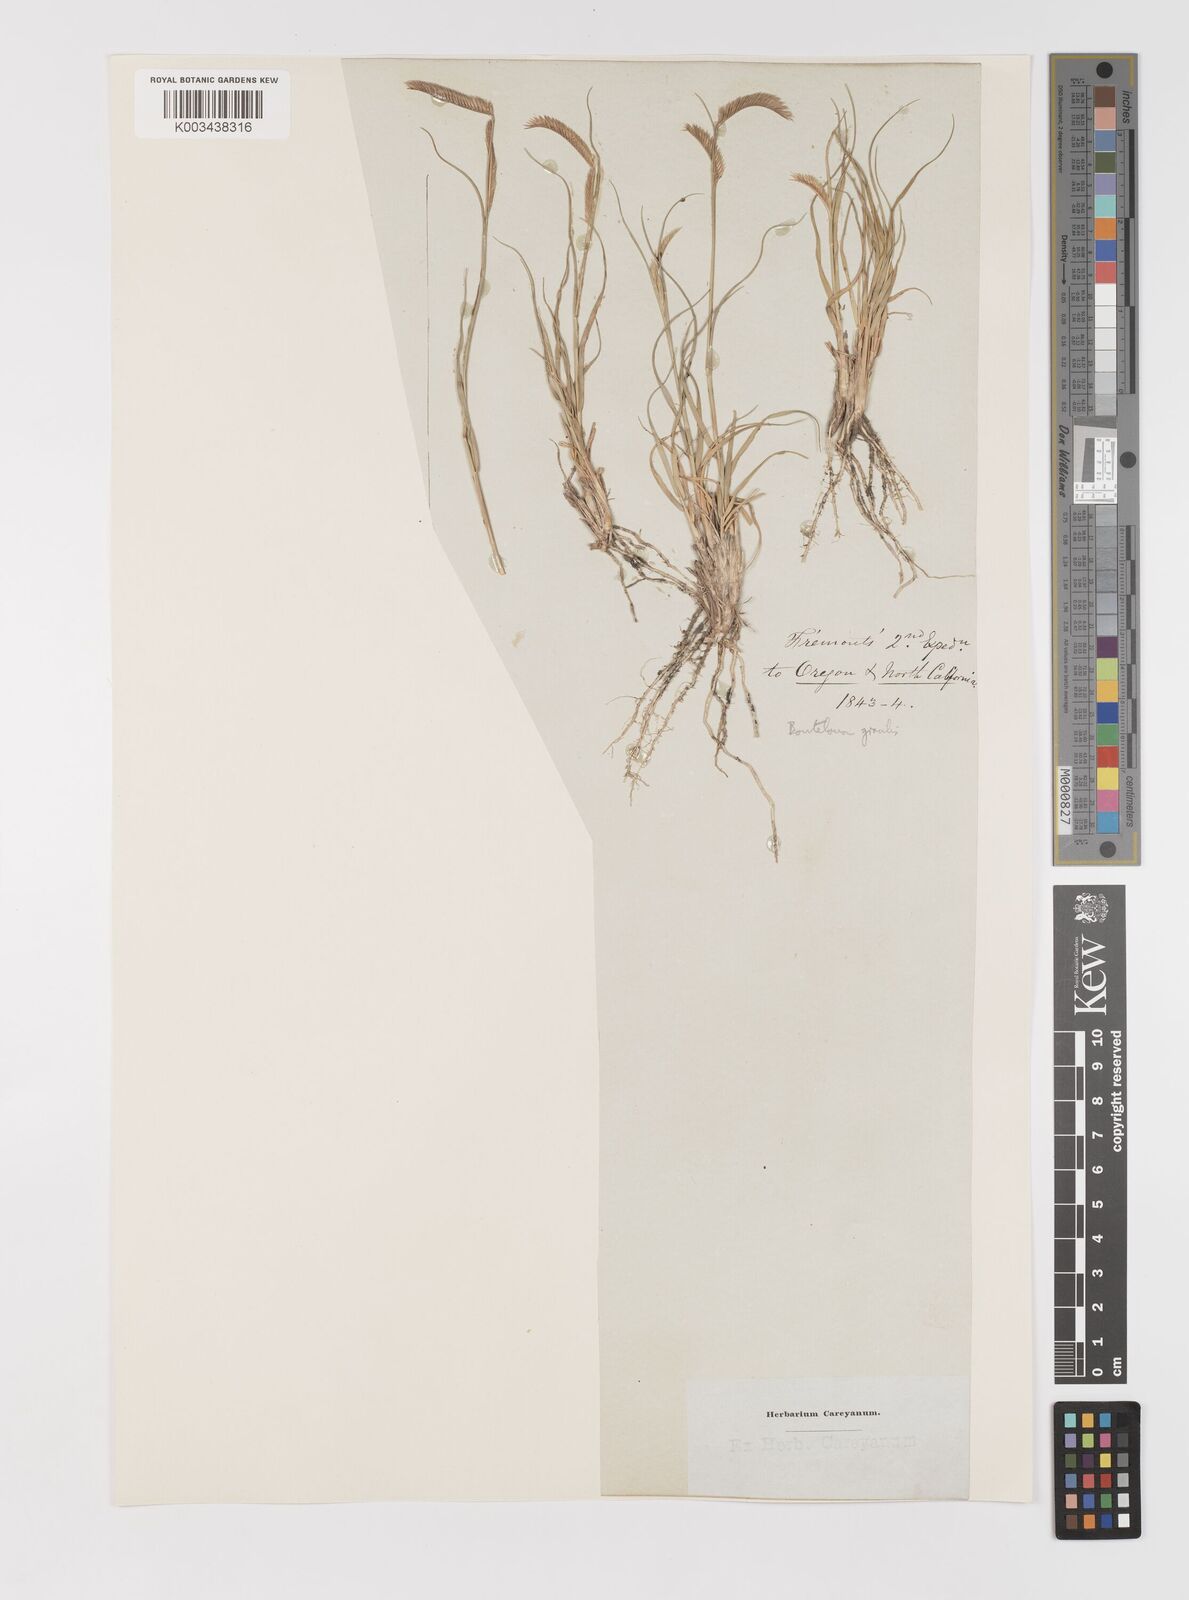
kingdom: Plantae
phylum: Tracheophyta
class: Liliopsida
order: Poales
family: Poaceae
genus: Bouteloua
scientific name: Bouteloua
